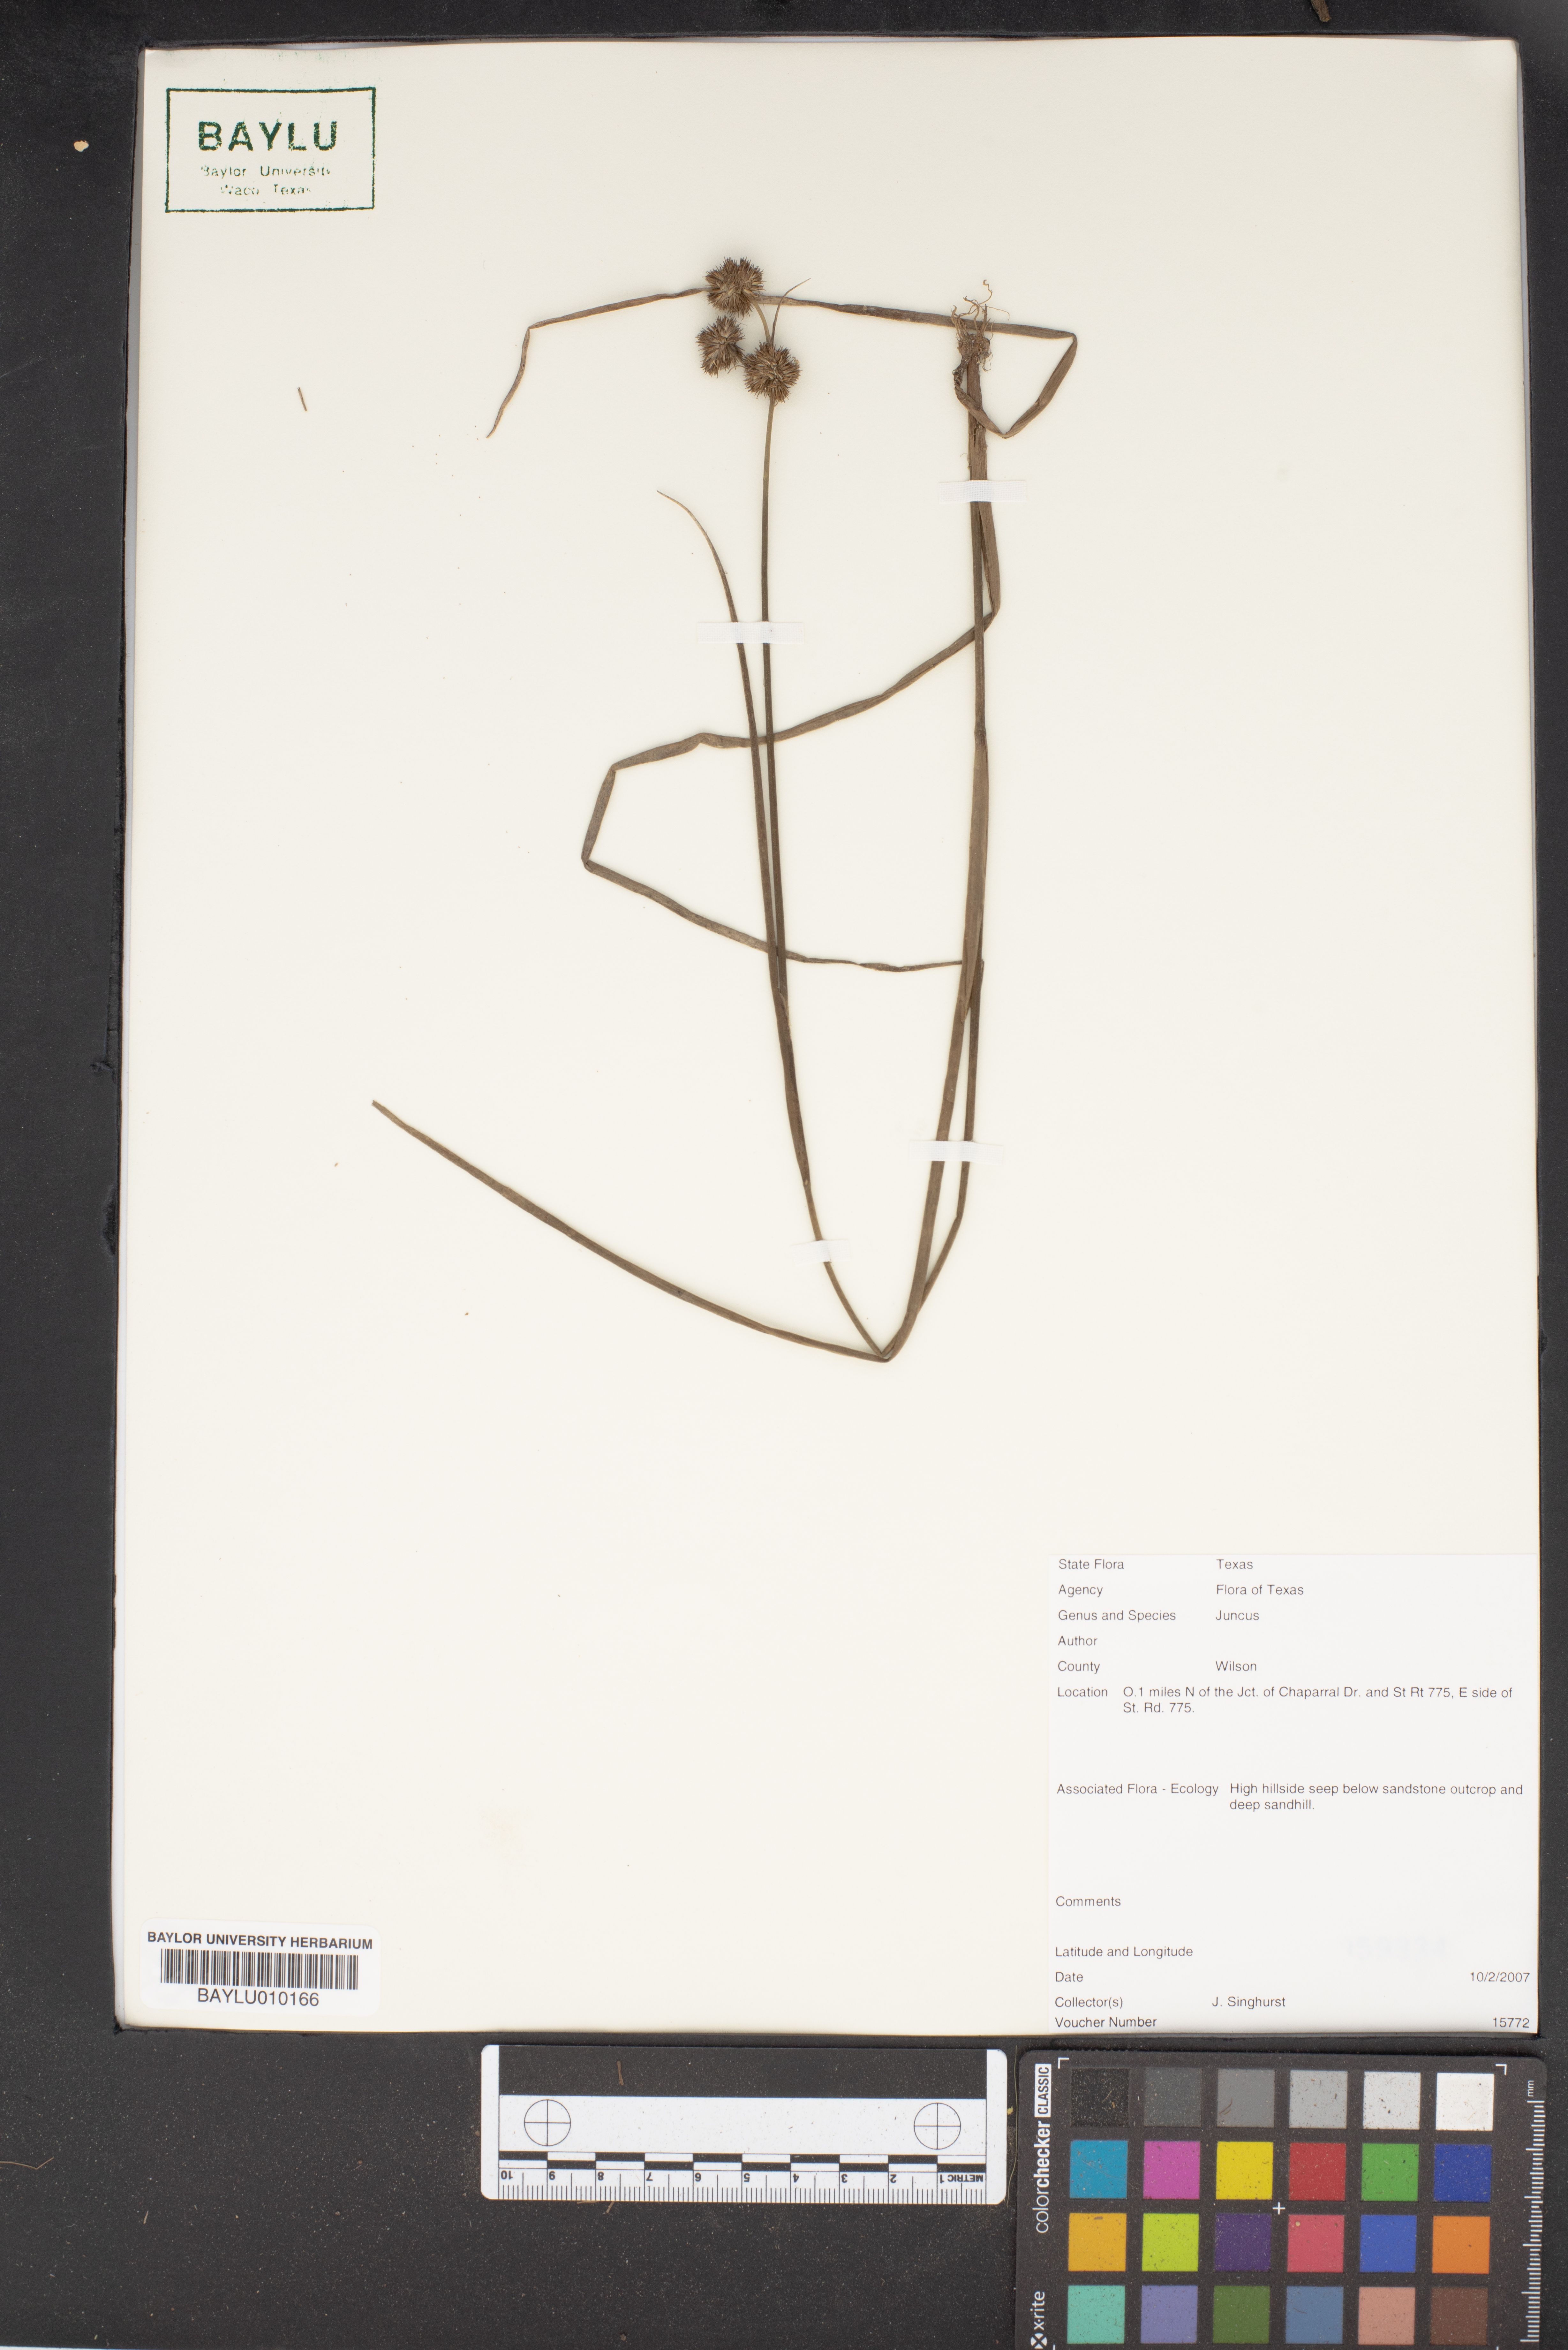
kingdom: Plantae
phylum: Tracheophyta
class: Liliopsida
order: Poales
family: Juncaceae
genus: Juncus
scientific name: Juncus
